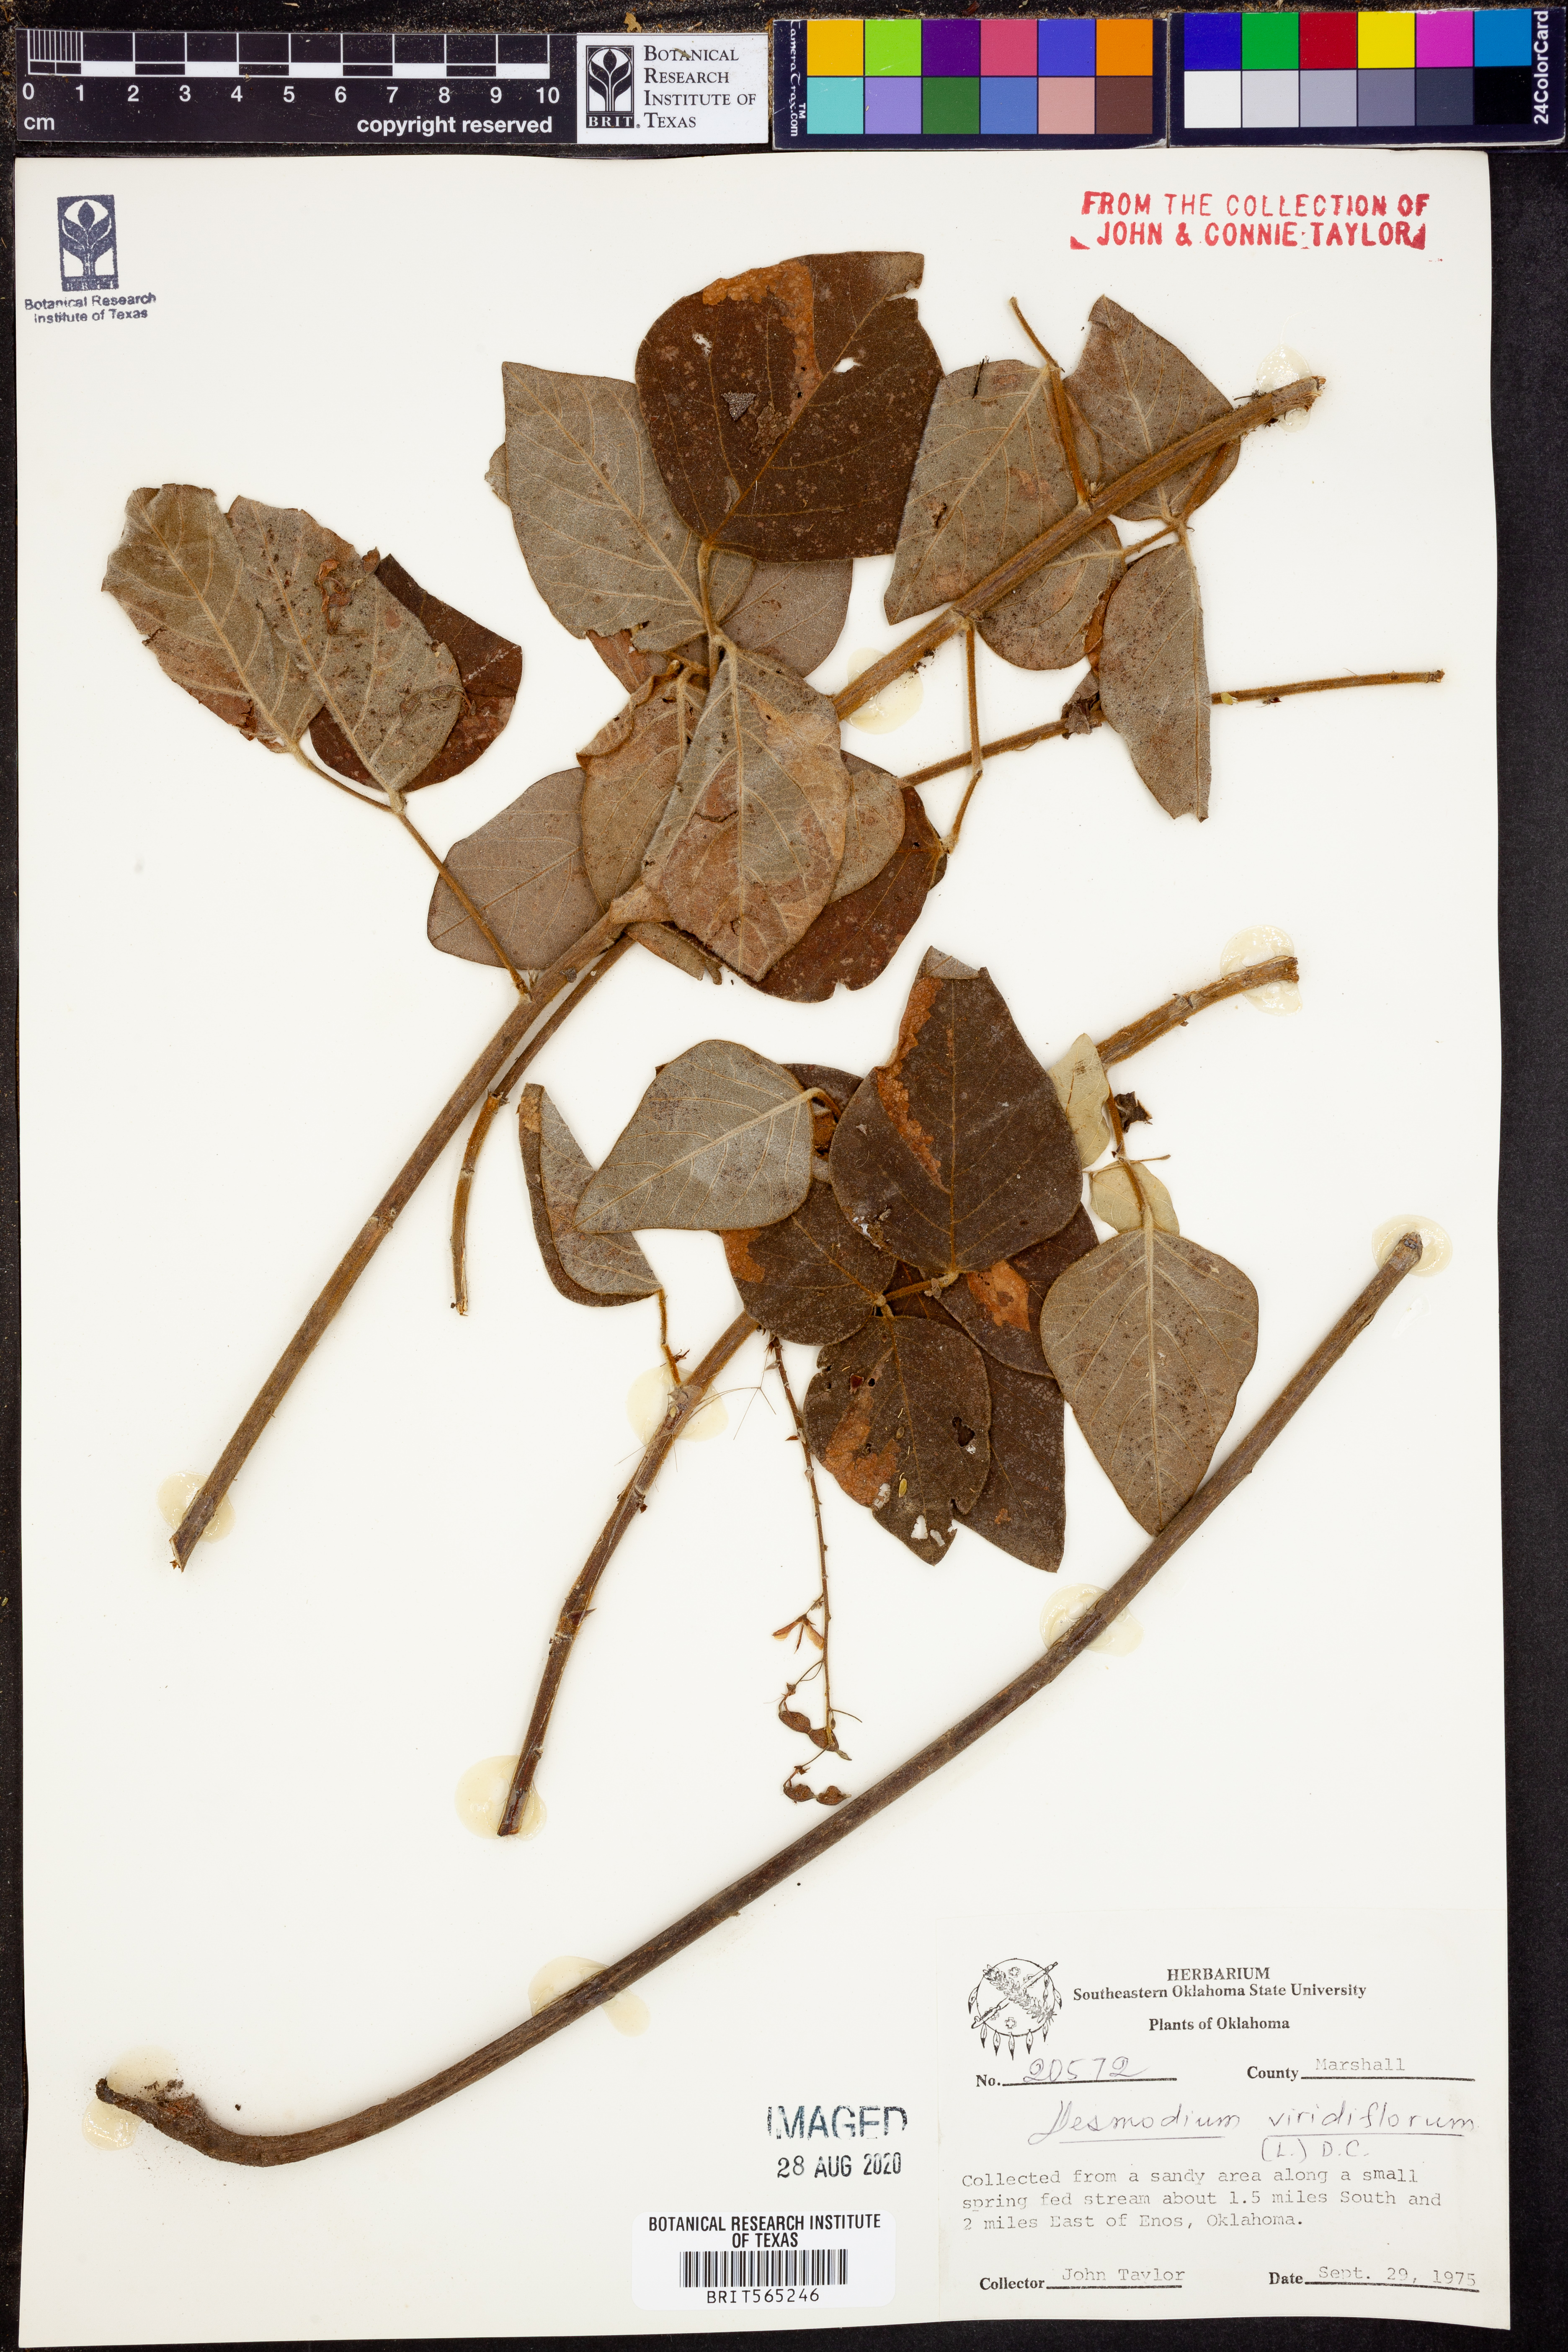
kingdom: Plantae
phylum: Tracheophyta
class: Magnoliopsida
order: Fabales
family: Fabaceae
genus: Desmodium
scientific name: Desmodium viridiflorum
